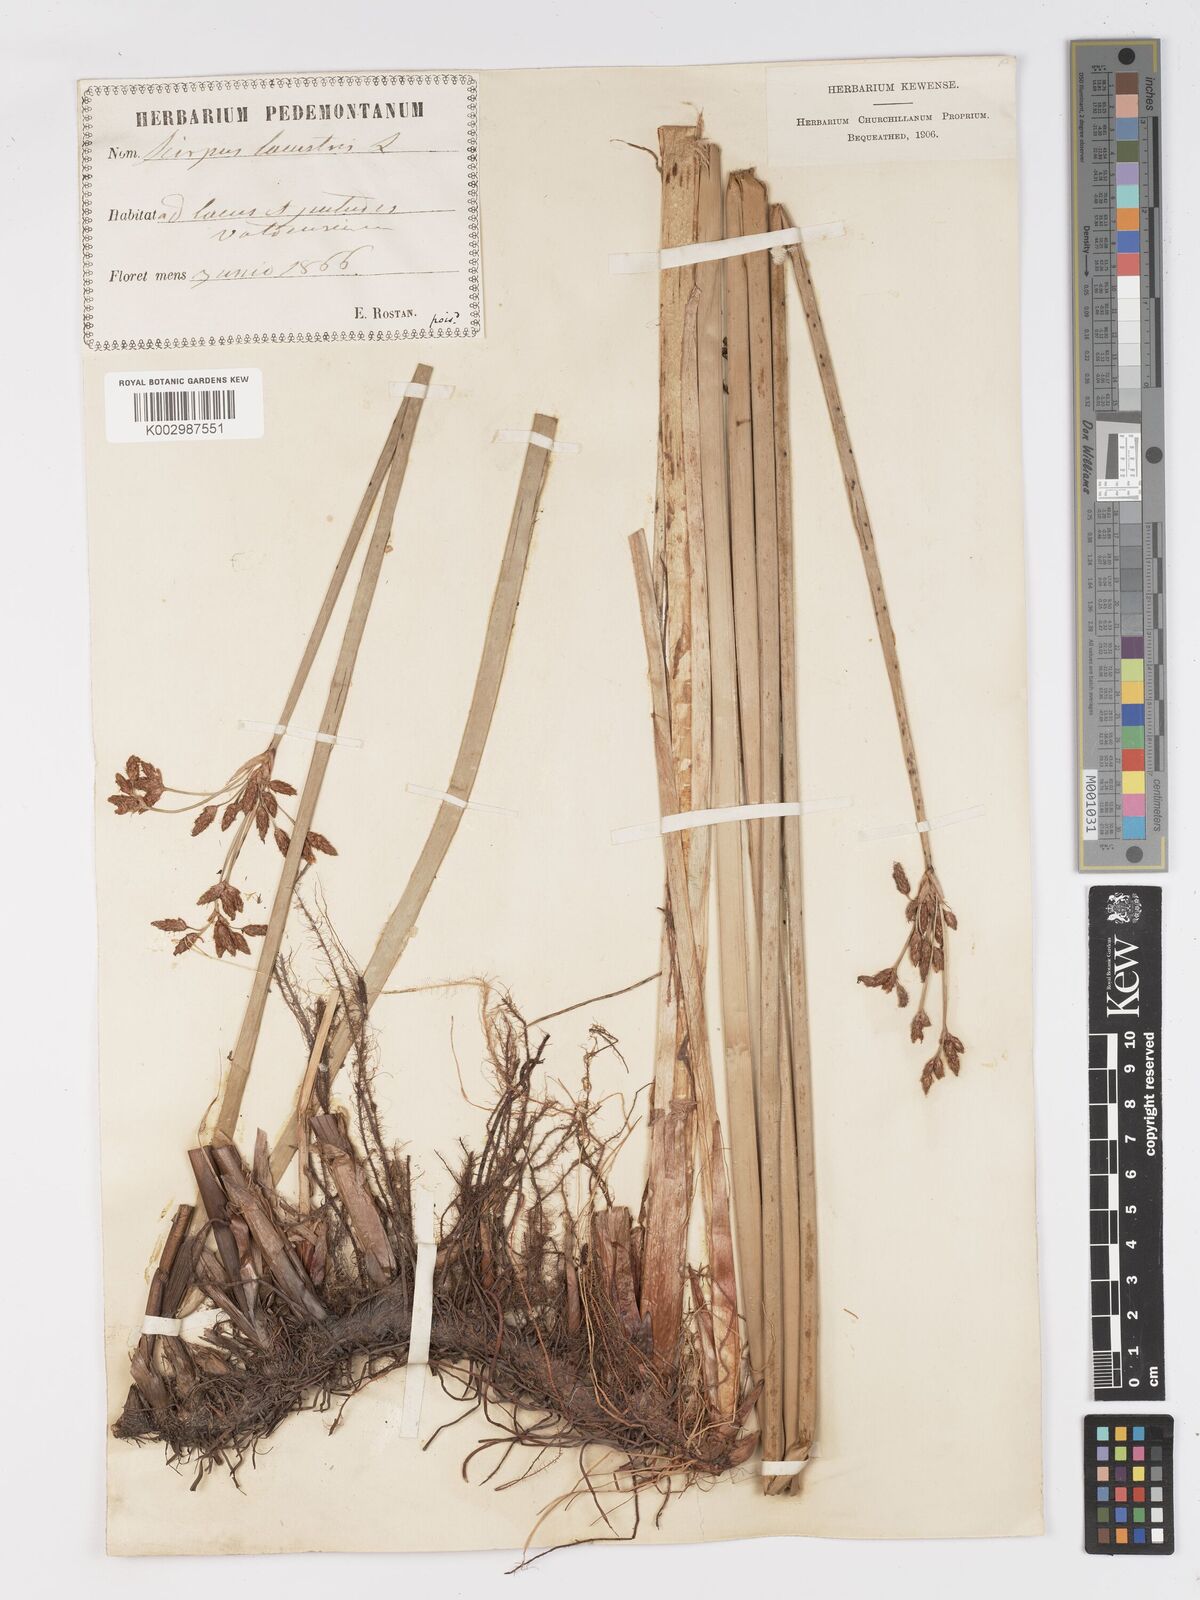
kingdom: Plantae
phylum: Tracheophyta
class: Liliopsida
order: Poales
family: Cyperaceae
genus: Schoenoplectus
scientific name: Schoenoplectus lacustris
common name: Common club-rush
